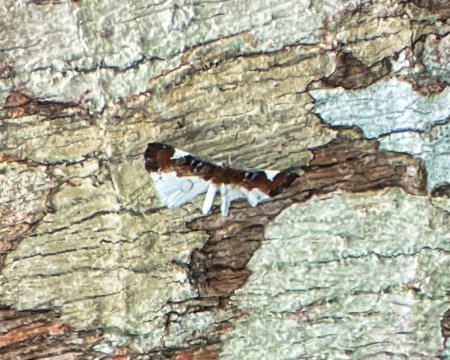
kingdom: Animalia
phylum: Arthropoda
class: Insecta
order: Lepidoptera
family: Riodinidae
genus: Behemothia
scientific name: Behemothia
